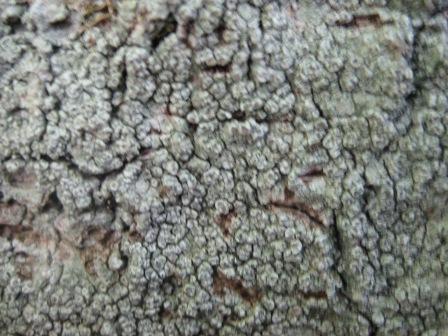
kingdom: Fungi
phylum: Ascomycota
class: Lecanoromycetes
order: Pertusariales
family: Pertusariaceae
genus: Pertusaria
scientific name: Pertusaria pertusa
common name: almindelig prikvortelav
